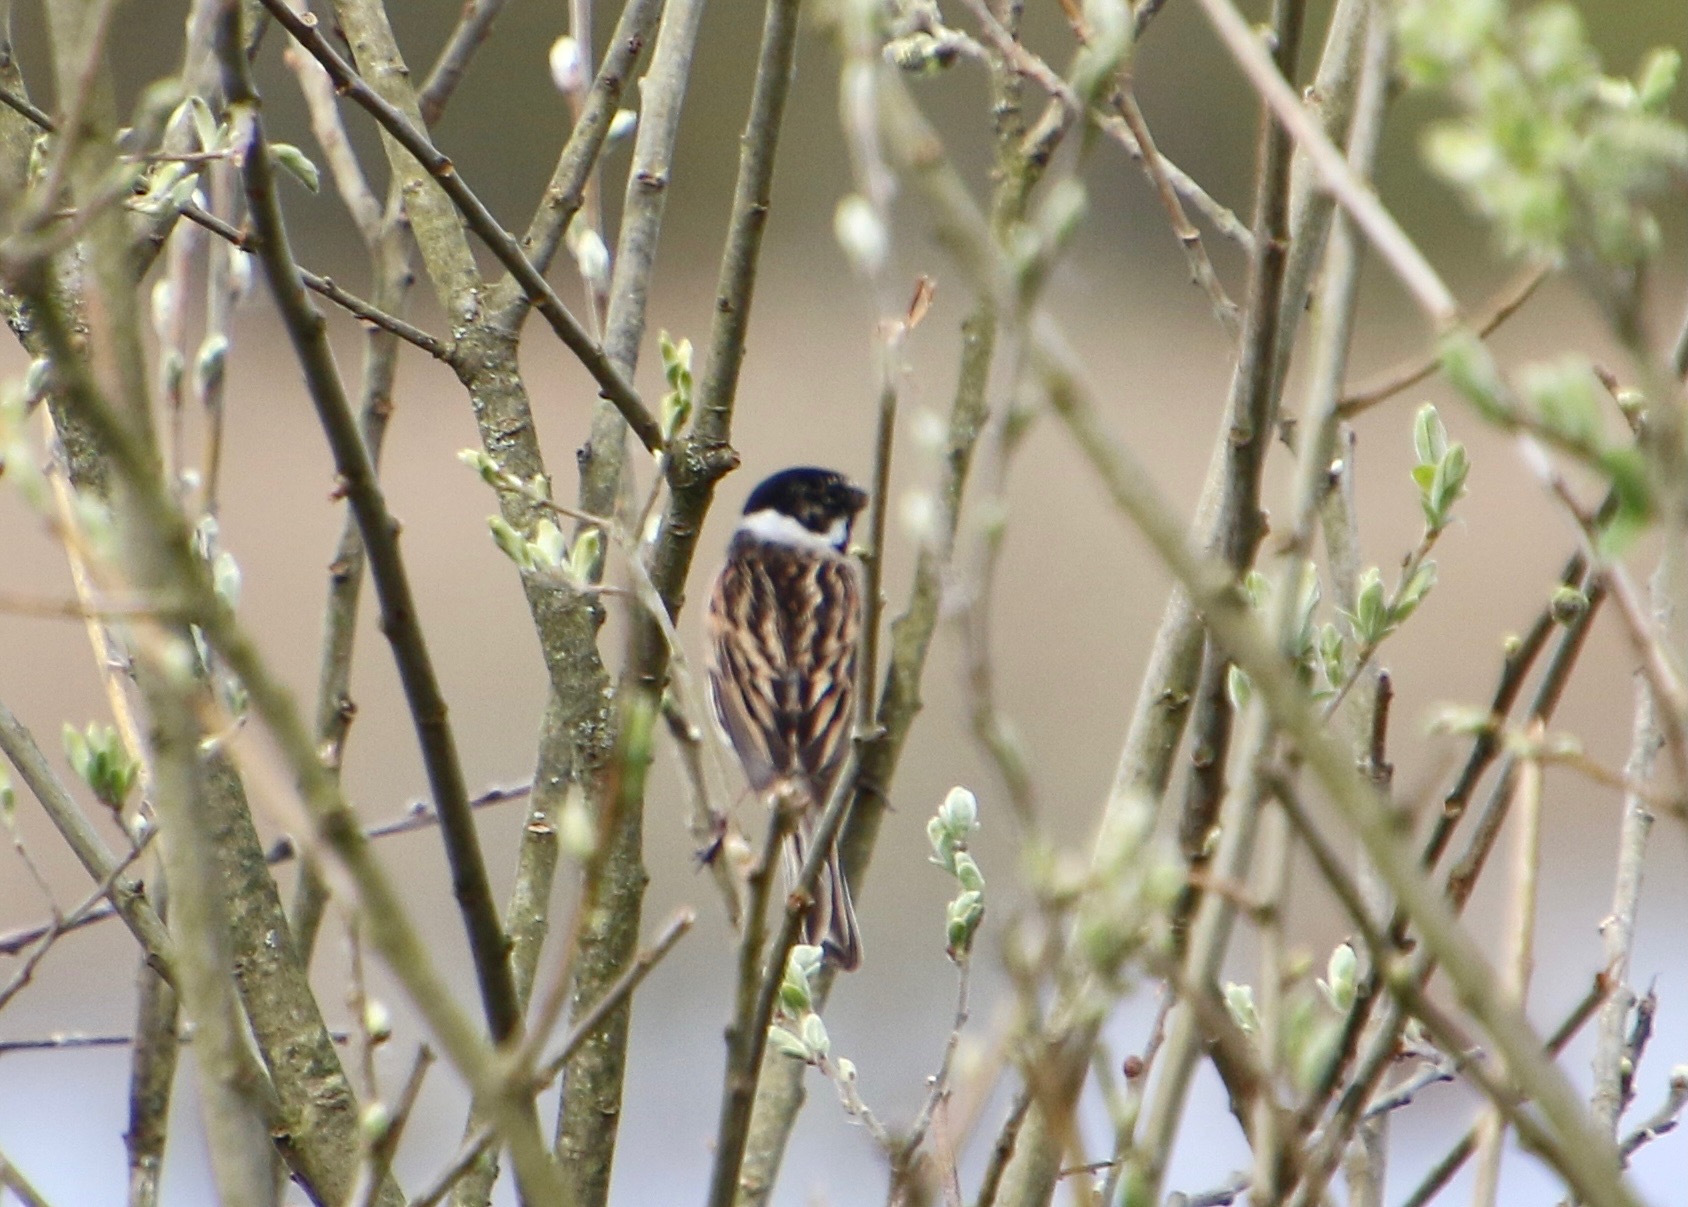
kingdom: Animalia
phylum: Chordata
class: Aves
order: Passeriformes
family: Emberizidae
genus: Emberiza
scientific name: Emberiza schoeniclus
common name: Rørspurv
